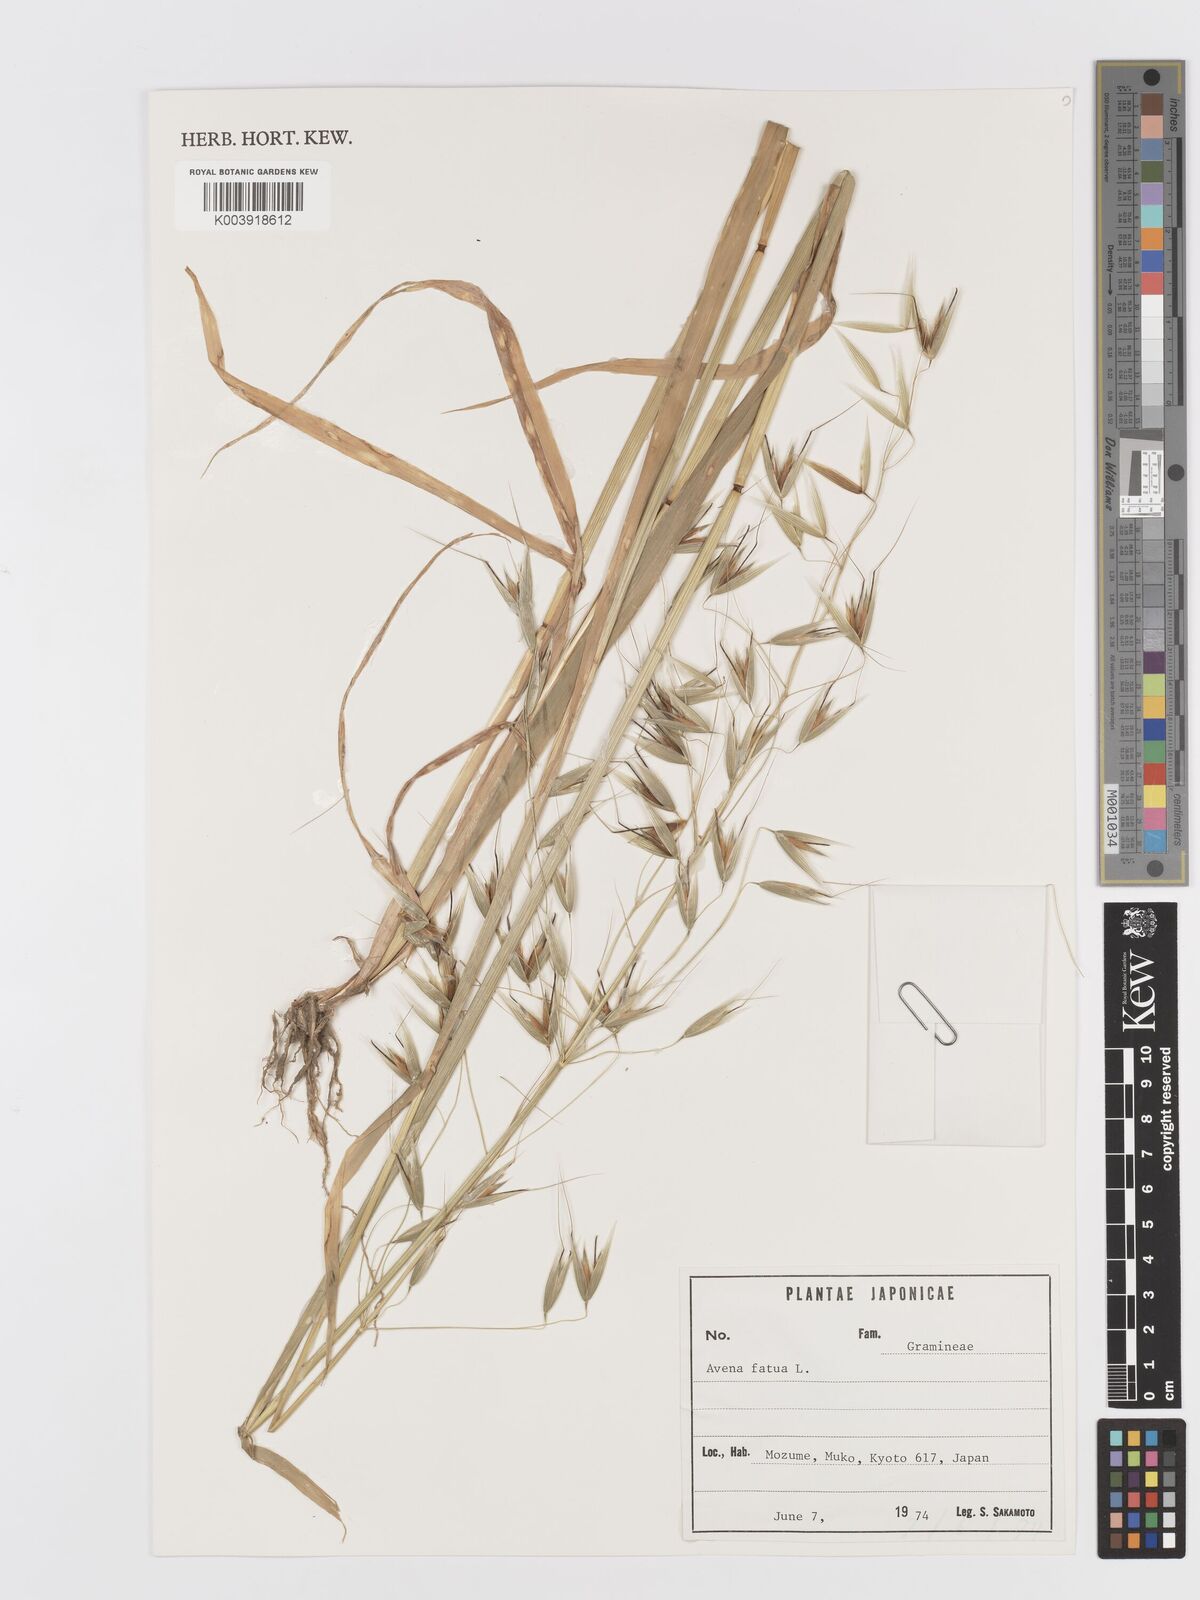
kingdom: Plantae
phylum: Tracheophyta
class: Liliopsida
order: Poales
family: Poaceae
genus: Avena
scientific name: Avena fatua
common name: Wild oat
